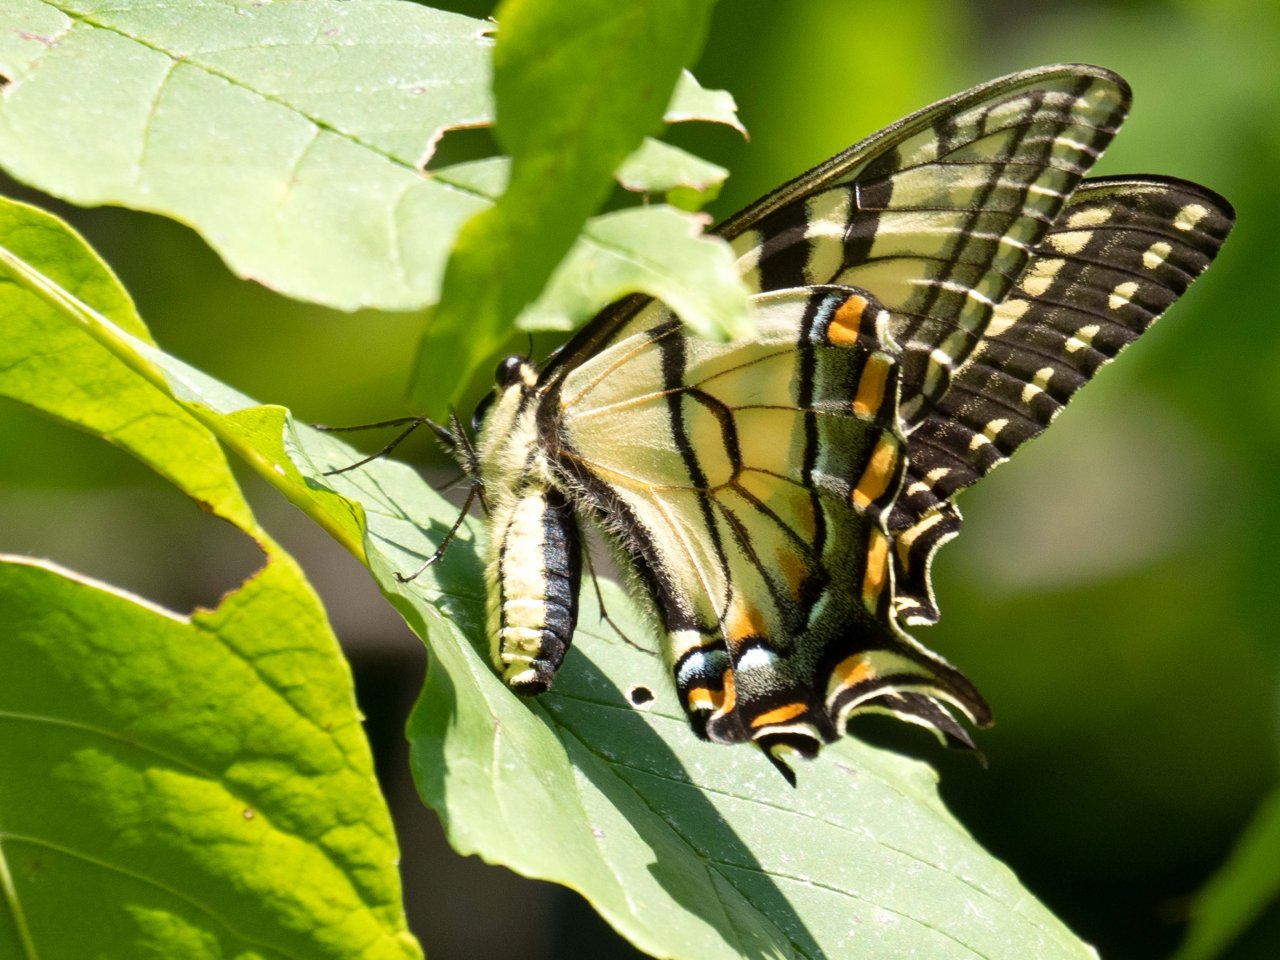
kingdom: Animalia
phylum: Arthropoda
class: Insecta
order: Lepidoptera
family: Papilionidae
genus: Pterourus
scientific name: Pterourus glaucus
